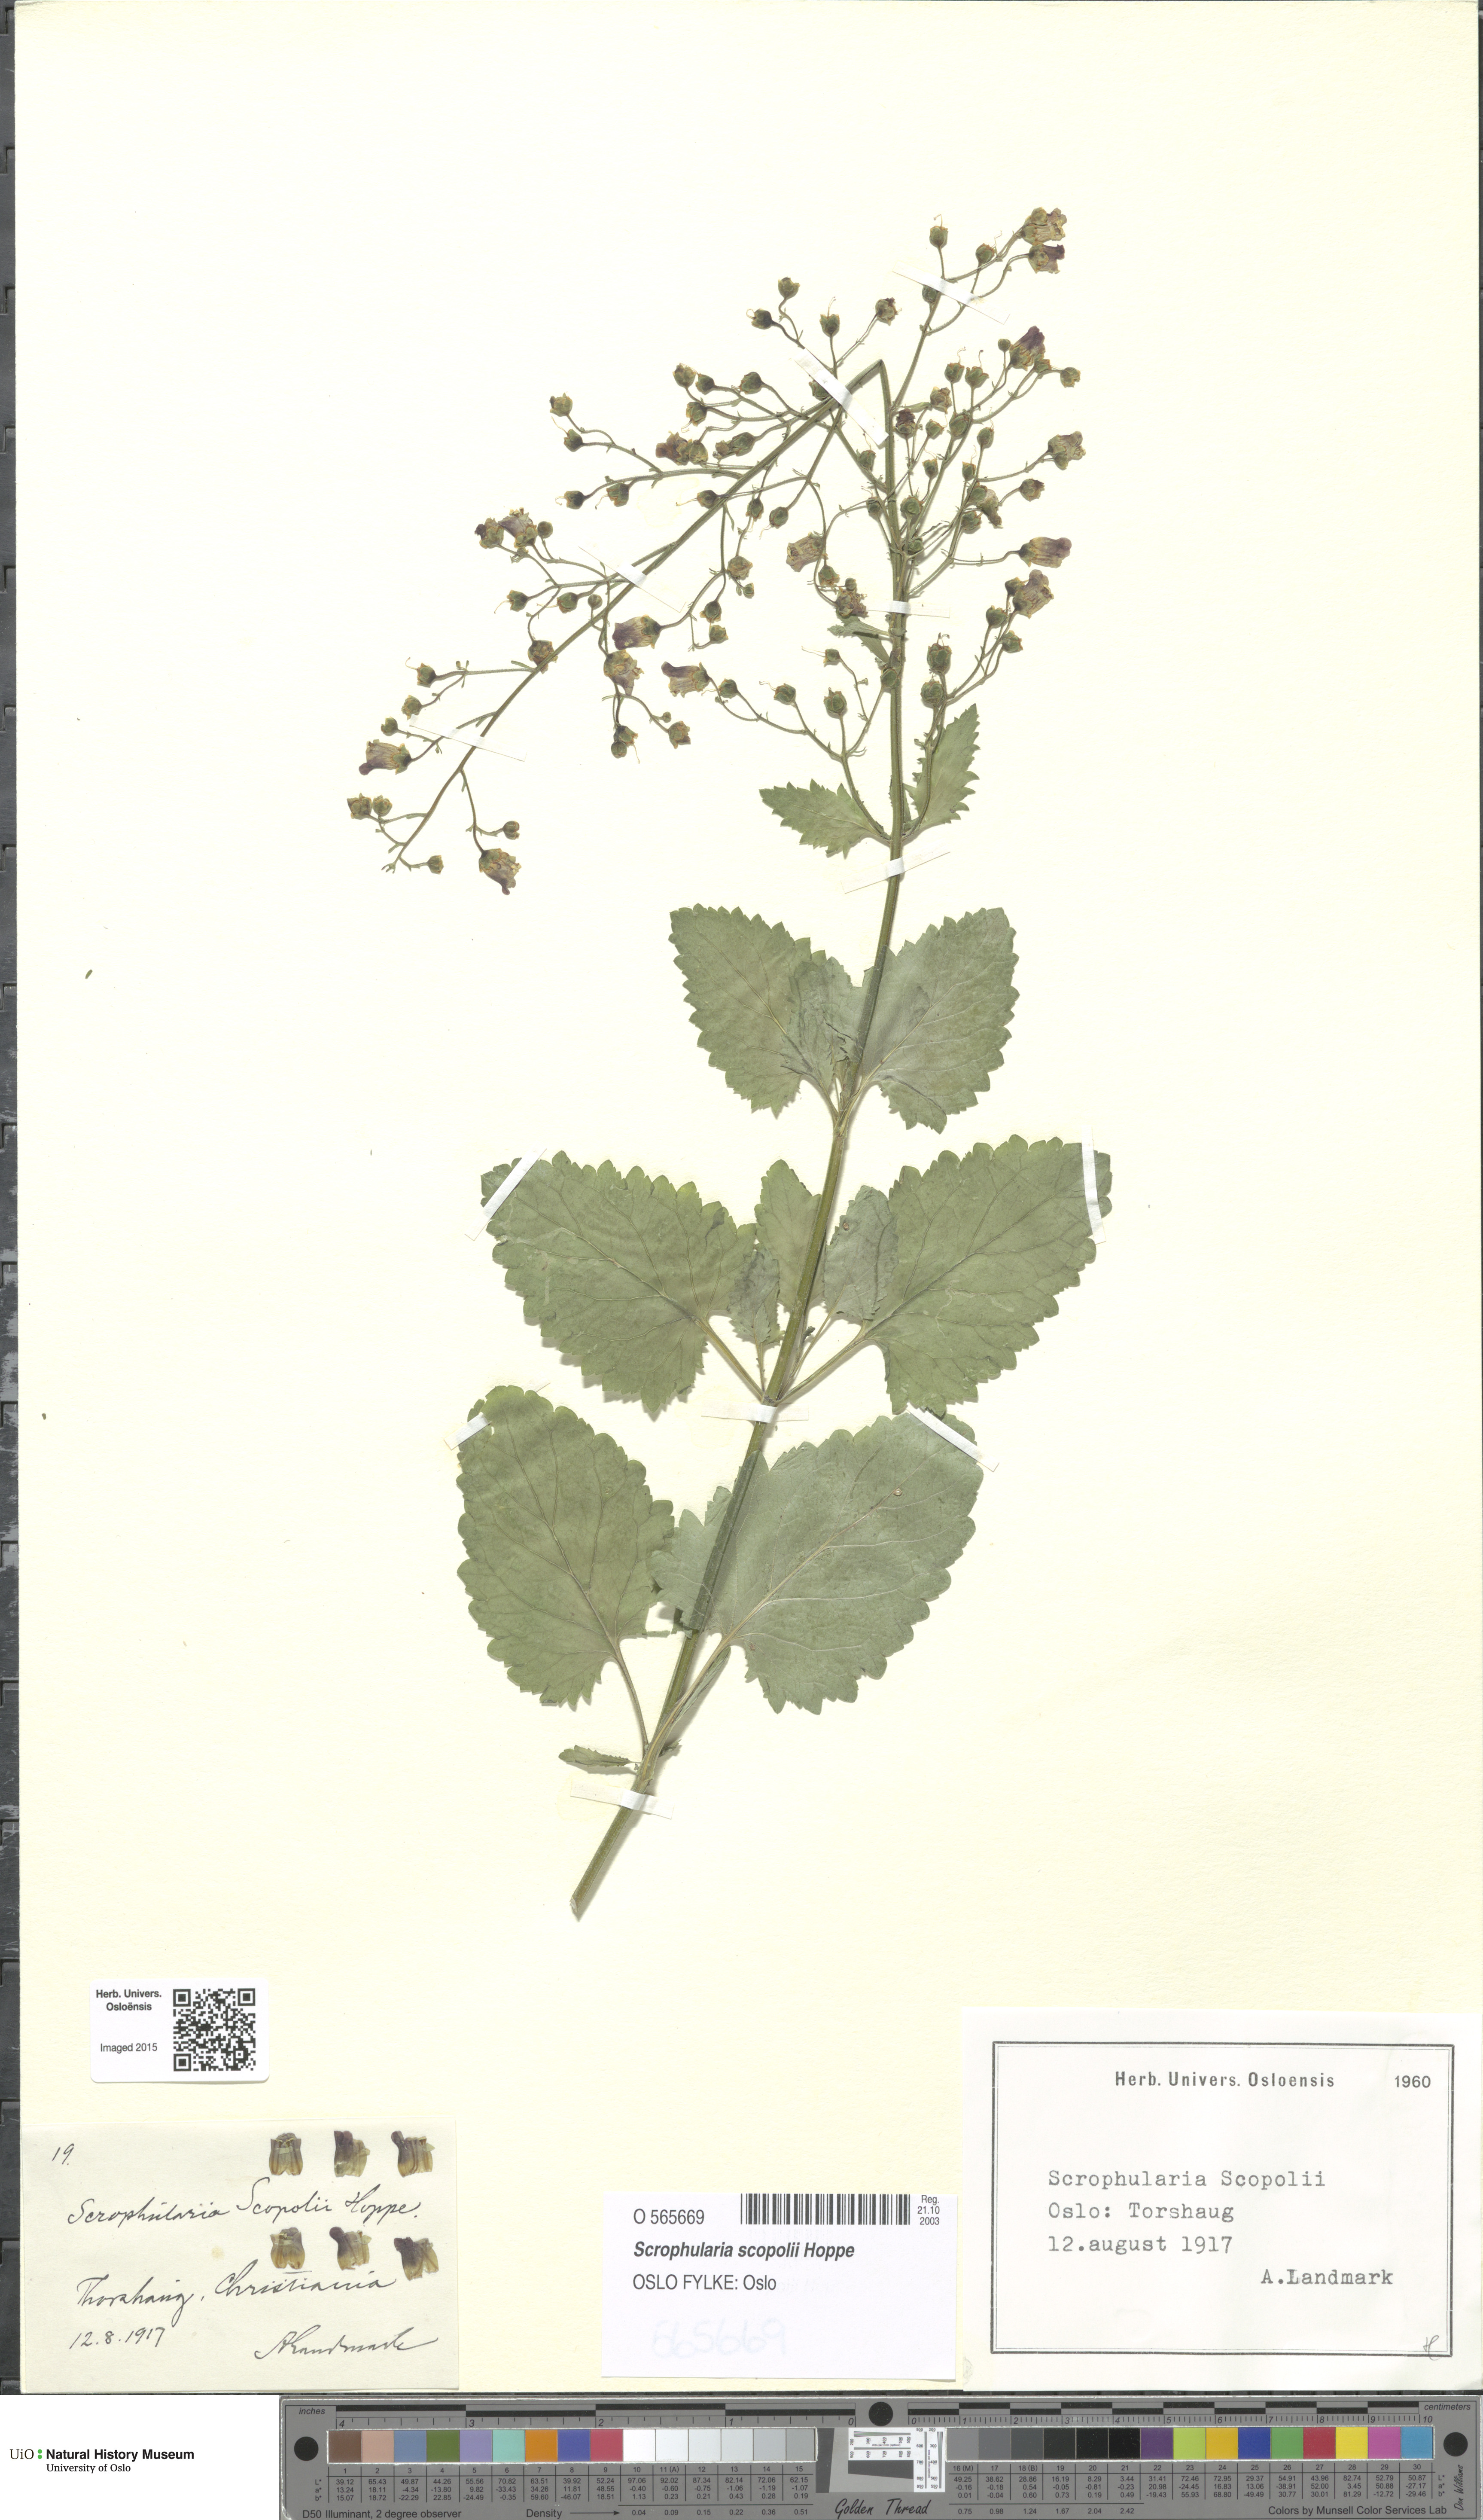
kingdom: Plantae
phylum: Tracheophyta
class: Magnoliopsida
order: Lamiales
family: Scrophulariaceae
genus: Scrophularia
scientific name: Scrophularia scopolii
